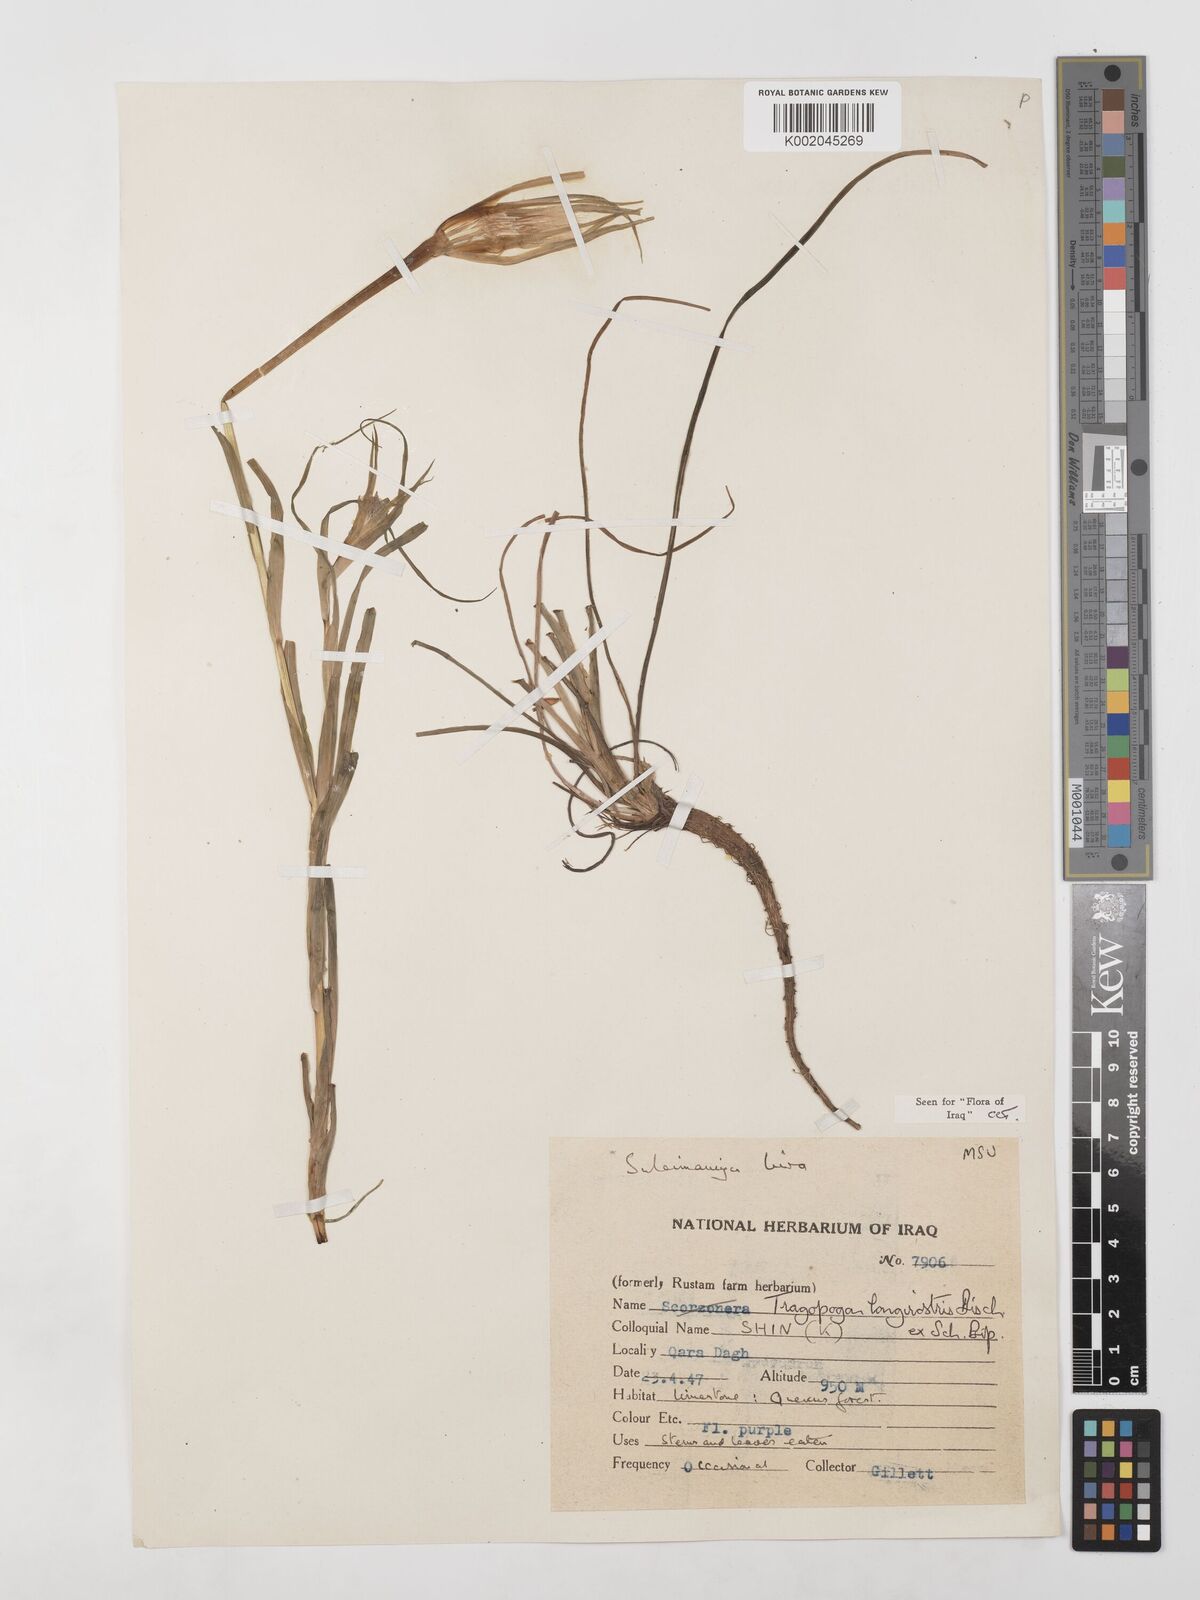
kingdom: Plantae
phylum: Tracheophyta
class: Magnoliopsida
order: Asterales
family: Asteraceae
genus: Tragopogon
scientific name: Tragopogon coelesyriacus
